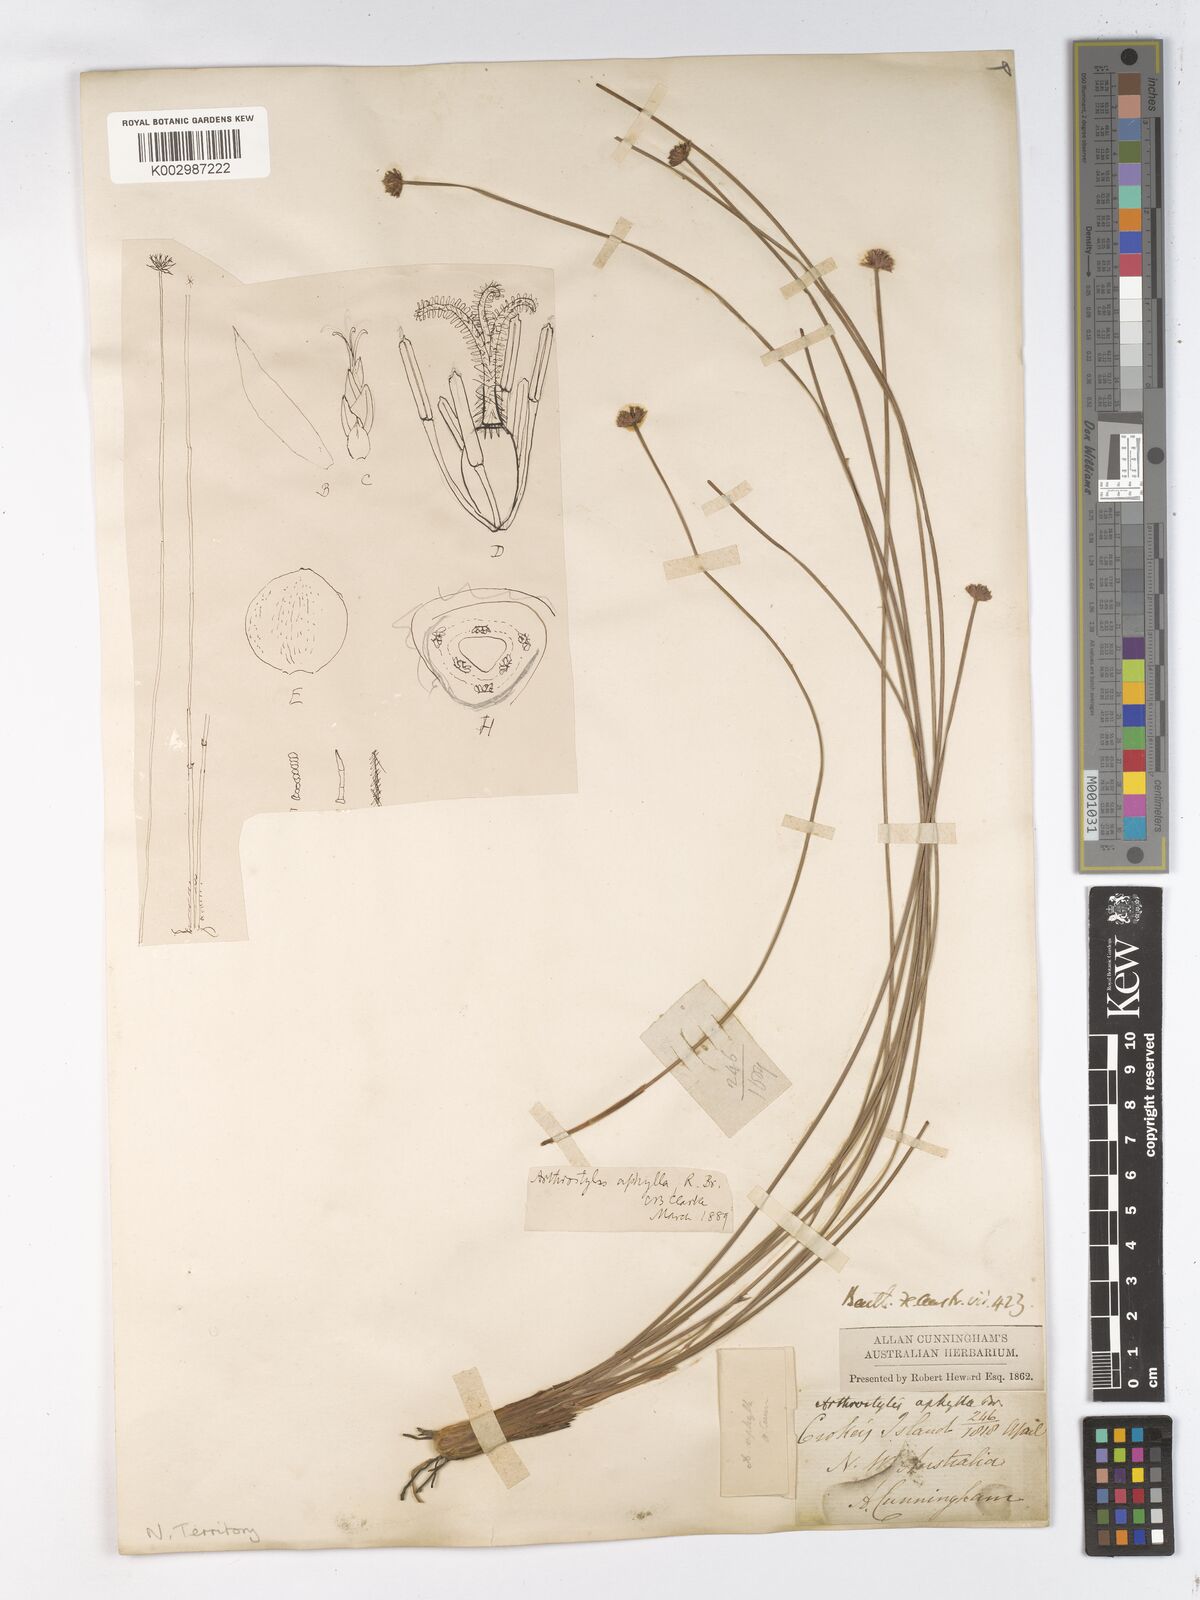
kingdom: Plantae
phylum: Tracheophyta
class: Liliopsida
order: Poales
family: Cyperaceae
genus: Arthrostylis
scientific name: Arthrostylis aphylla
